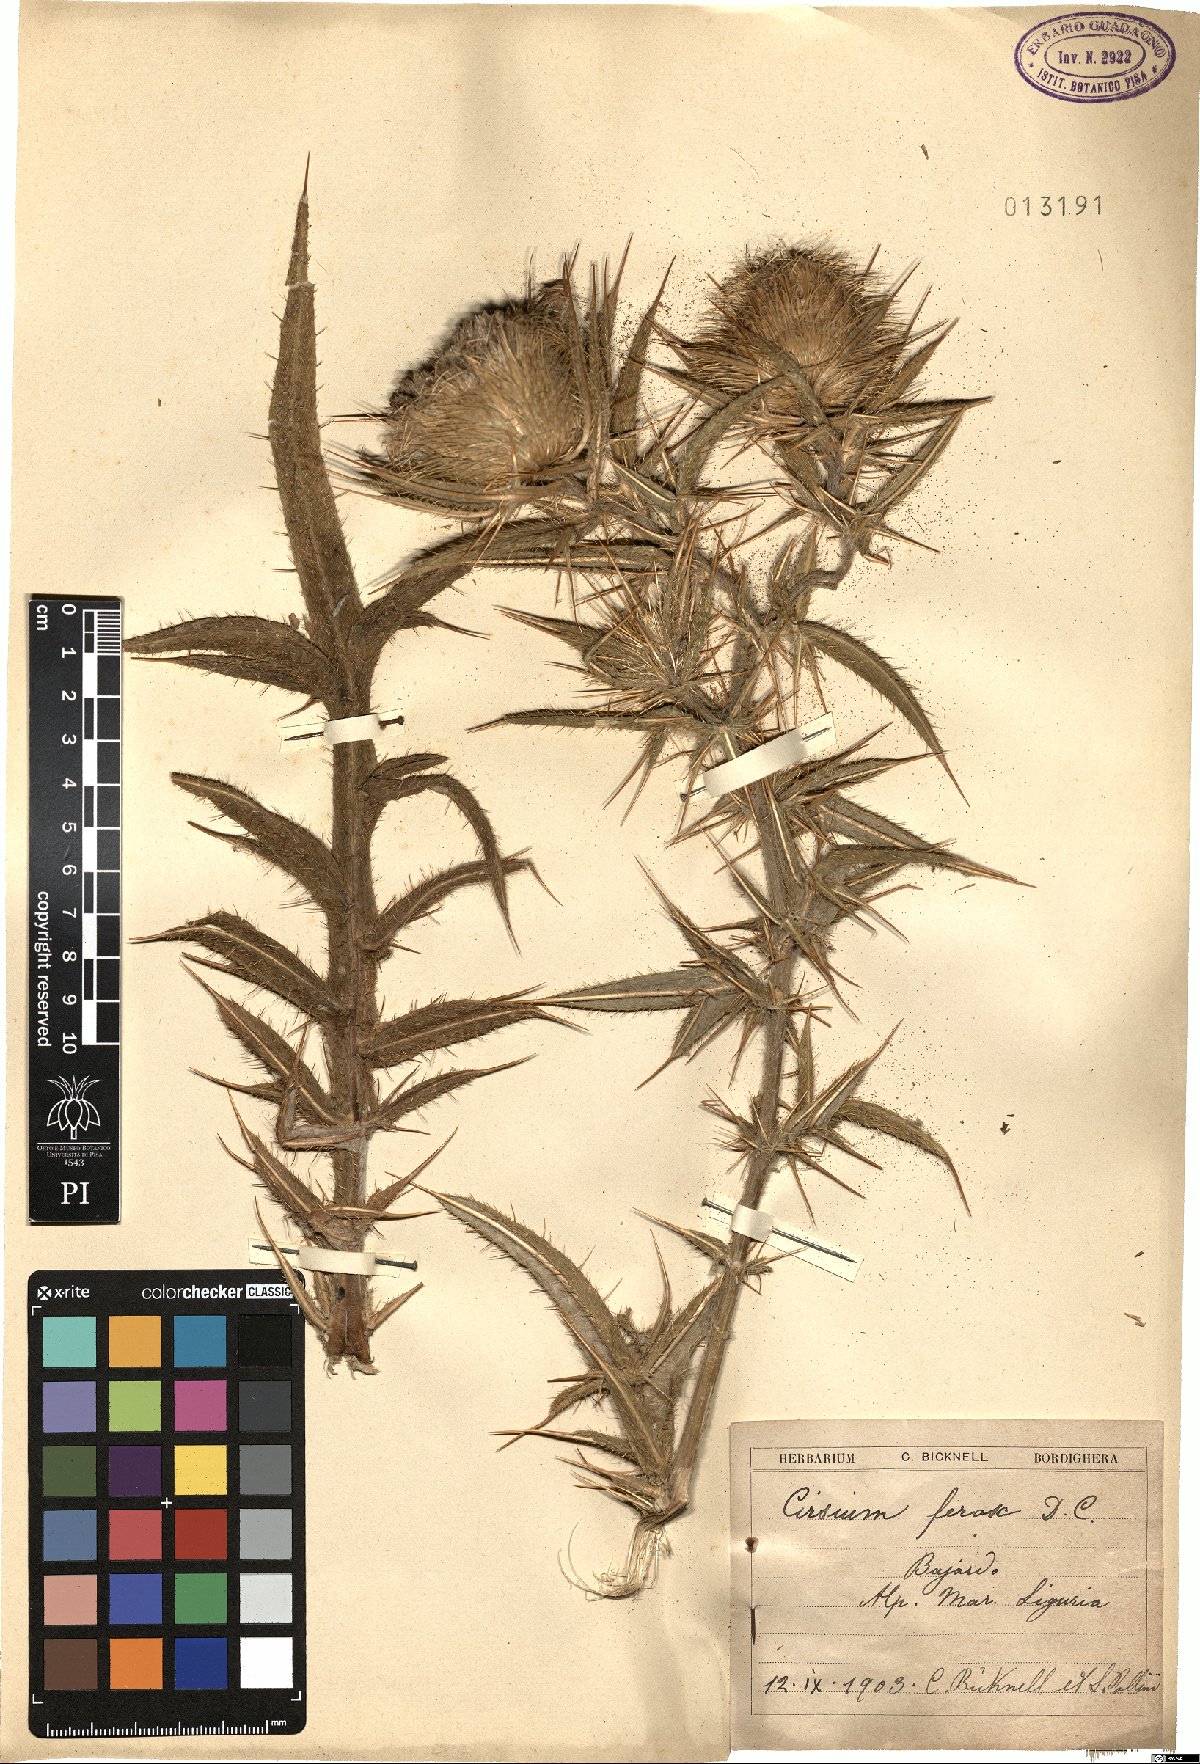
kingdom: Plantae
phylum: Tracheophyta
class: Magnoliopsida
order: Asterales
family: Asteraceae
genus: Lophiolepis
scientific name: Lophiolepis ferox
